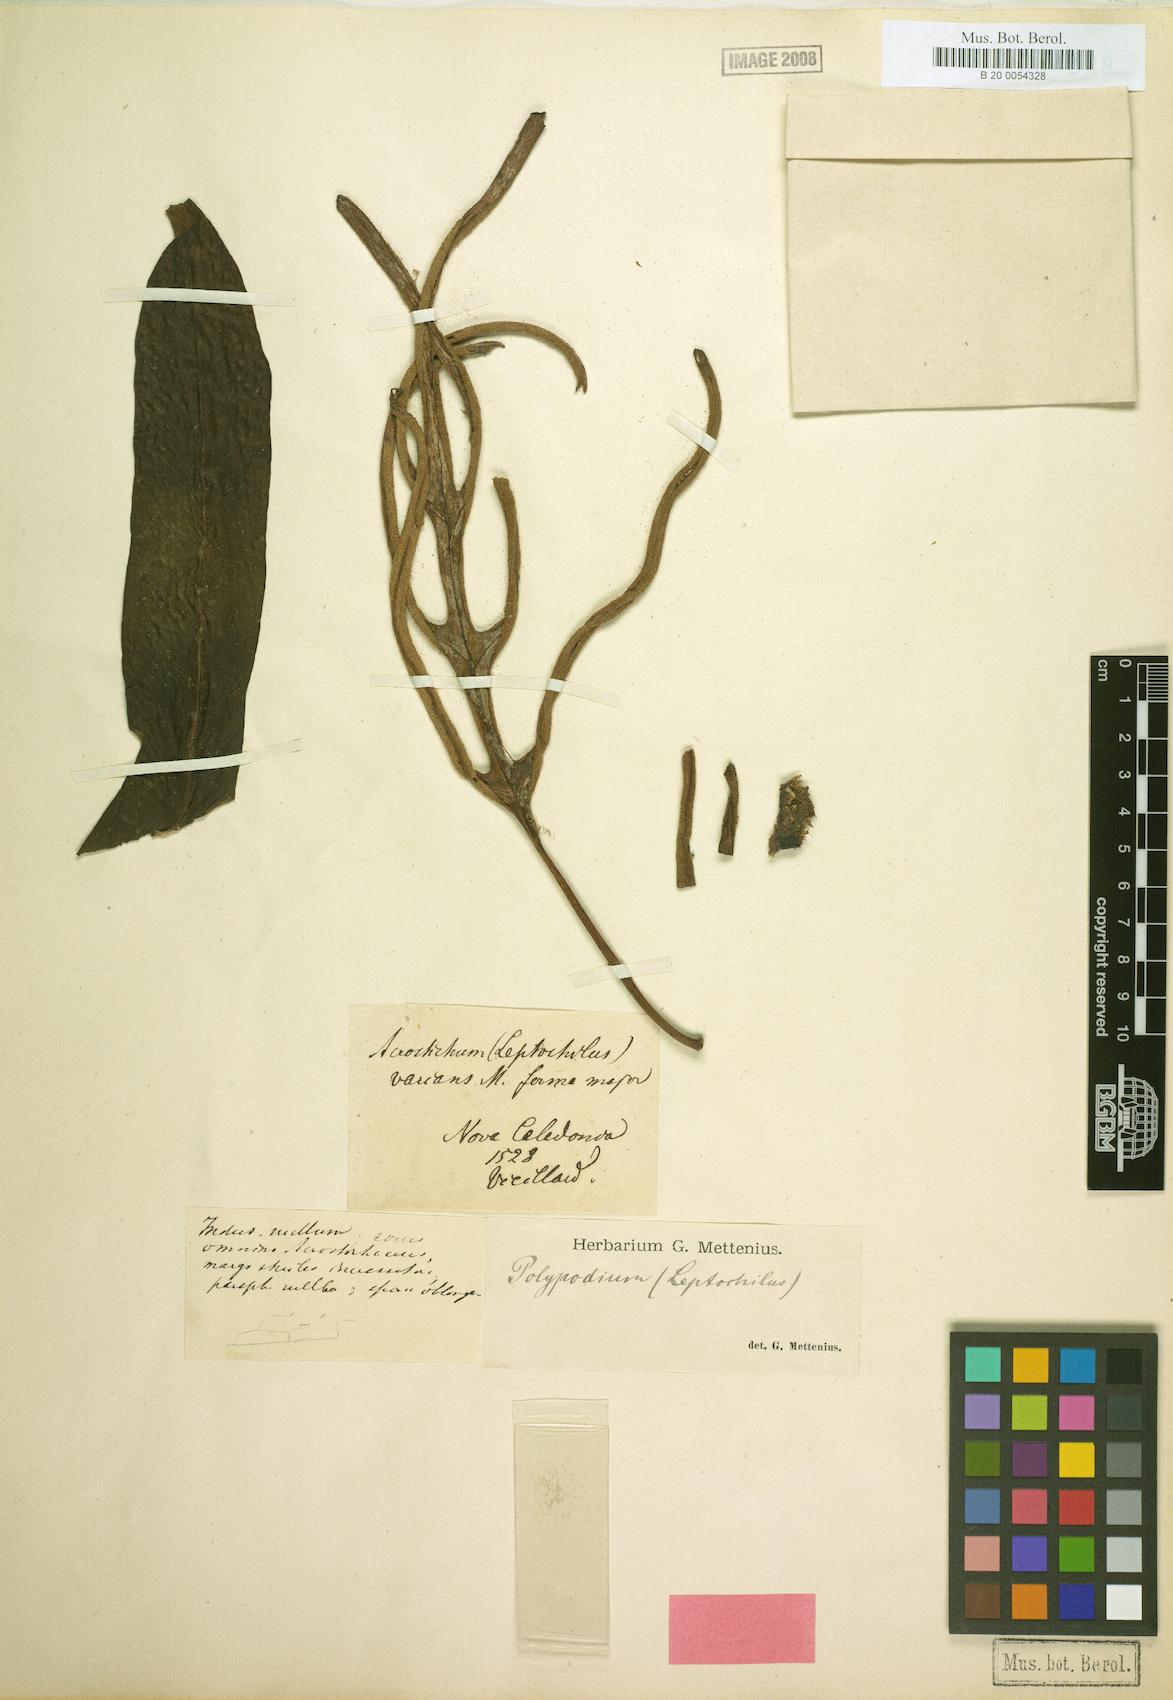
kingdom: Plantae
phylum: Tracheophyta
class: Polypodiopsida
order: Polypodiales
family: Polypodiaceae
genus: Lecanopteris
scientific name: Lecanopteris varians
